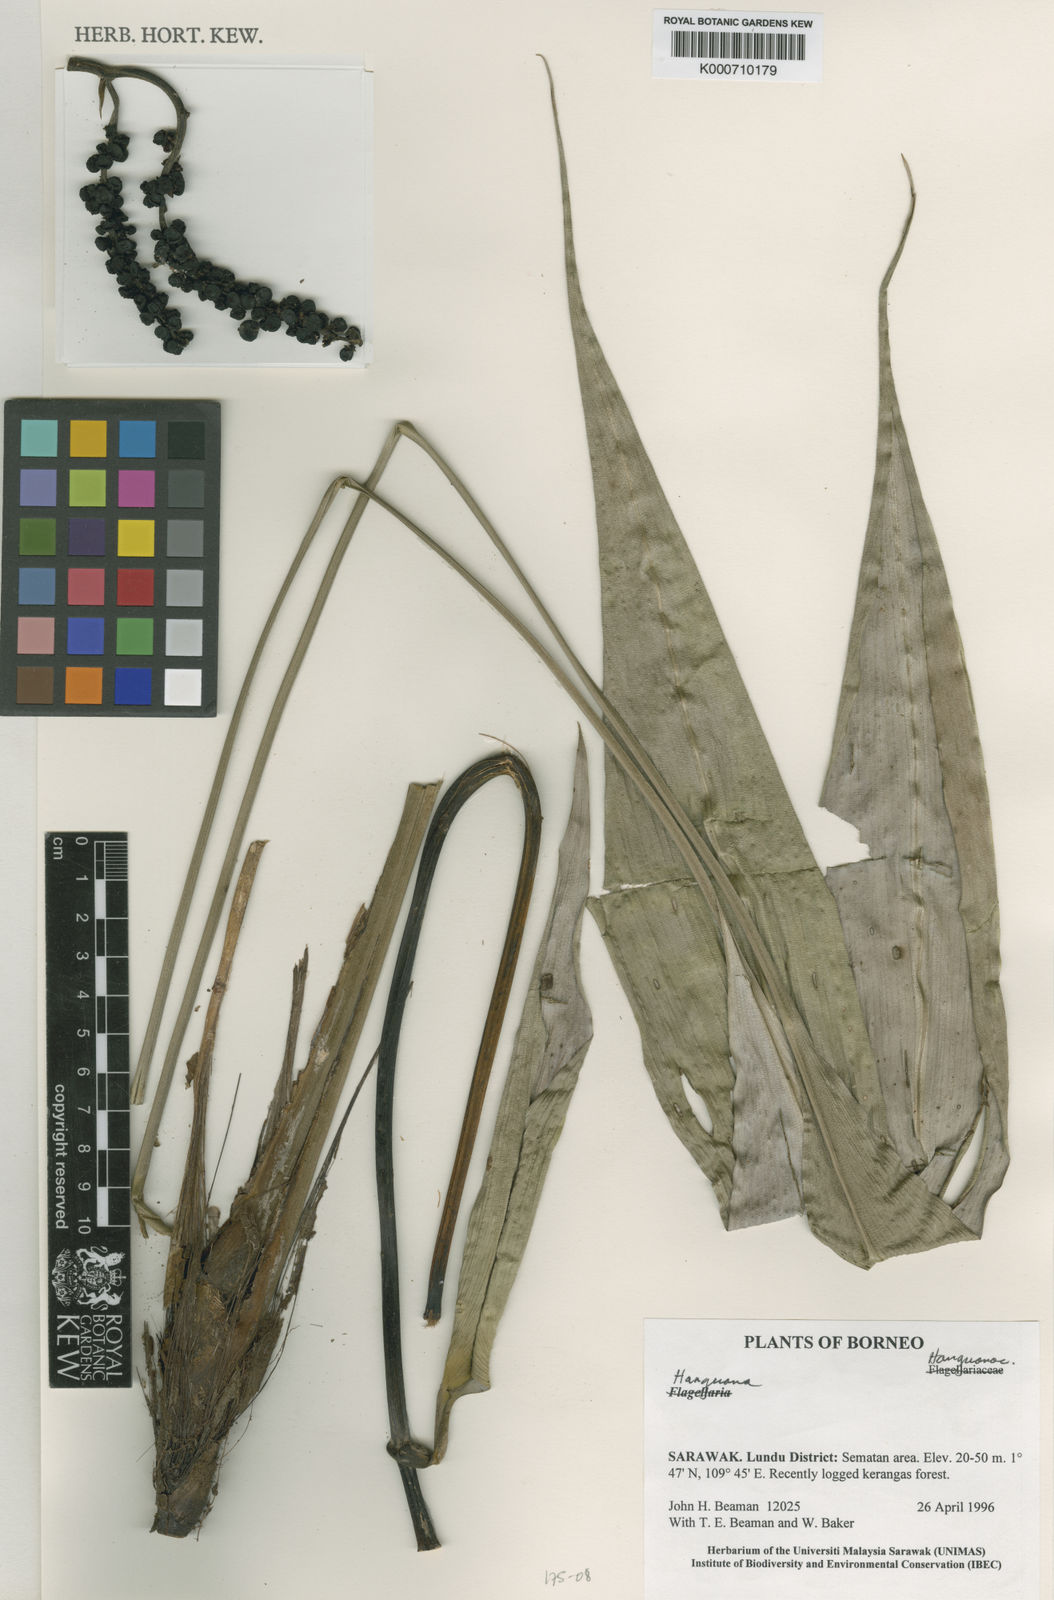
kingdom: Plantae
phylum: Tracheophyta
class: Liliopsida
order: Commelinales
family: Hanguanaceae
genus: Hanguana
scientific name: Hanguana
